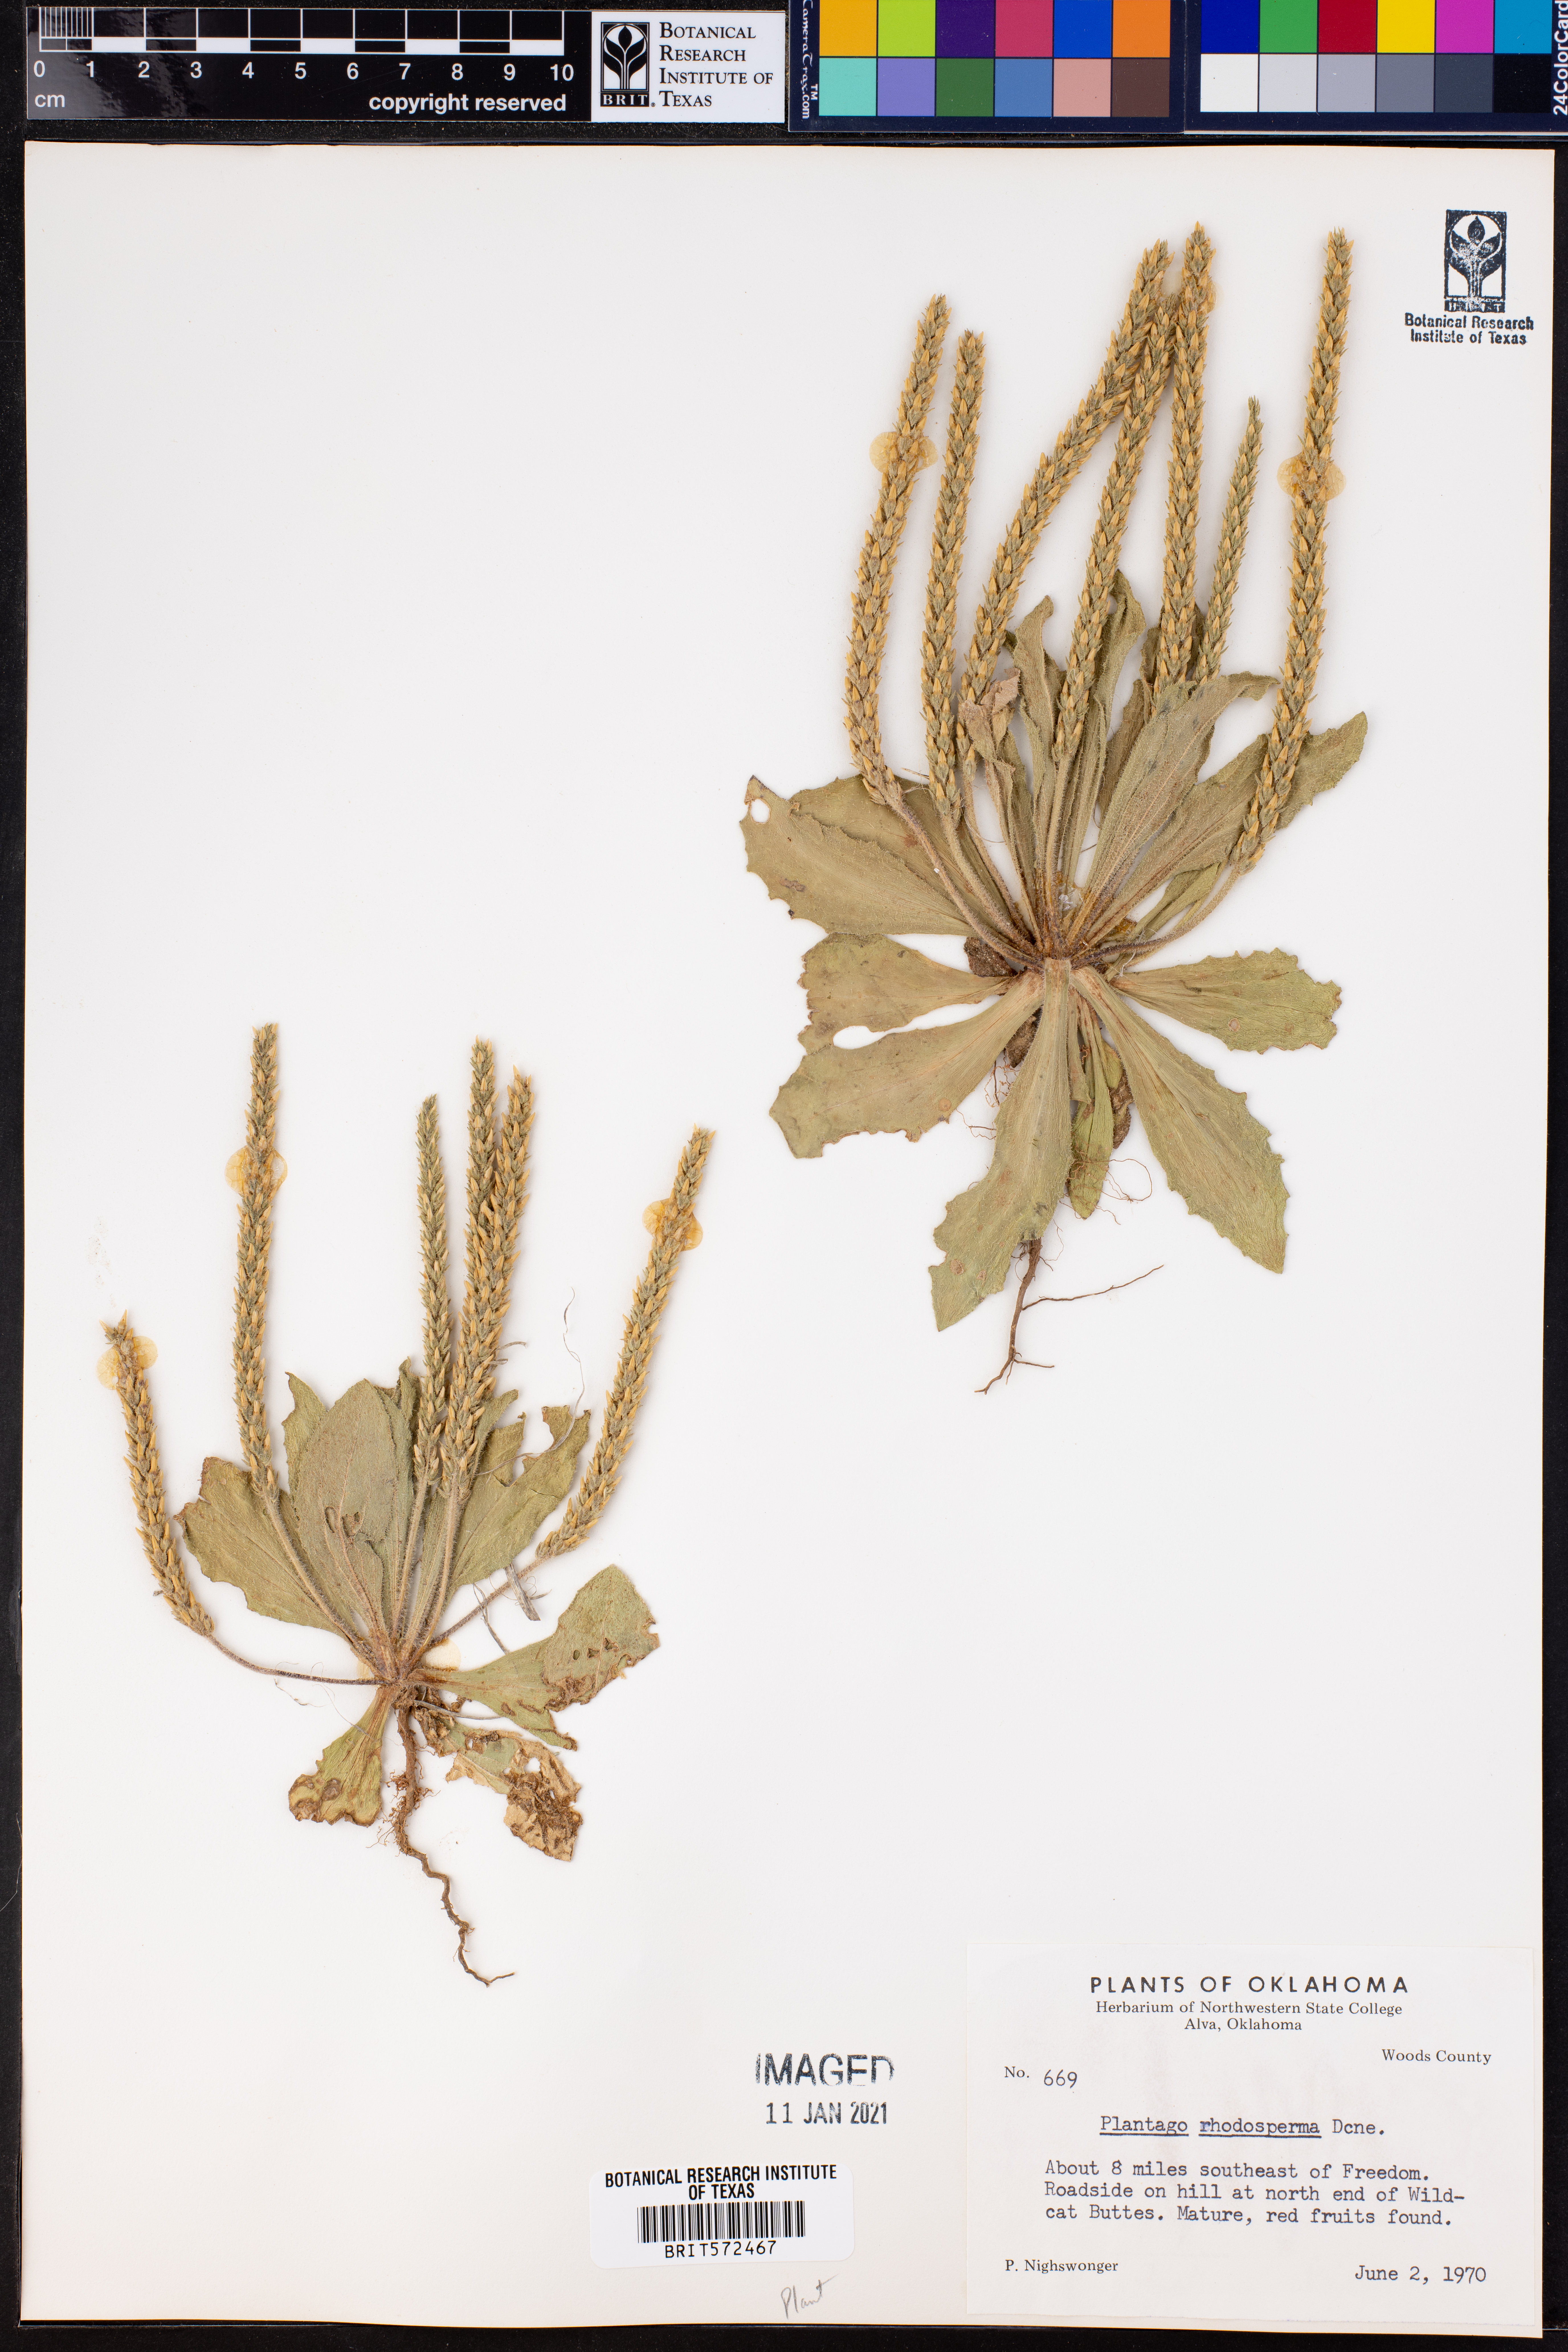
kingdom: Plantae
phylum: Tracheophyta
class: Magnoliopsida
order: Lamiales
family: Plantaginaceae
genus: Plantago
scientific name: Plantago rhodosperma
